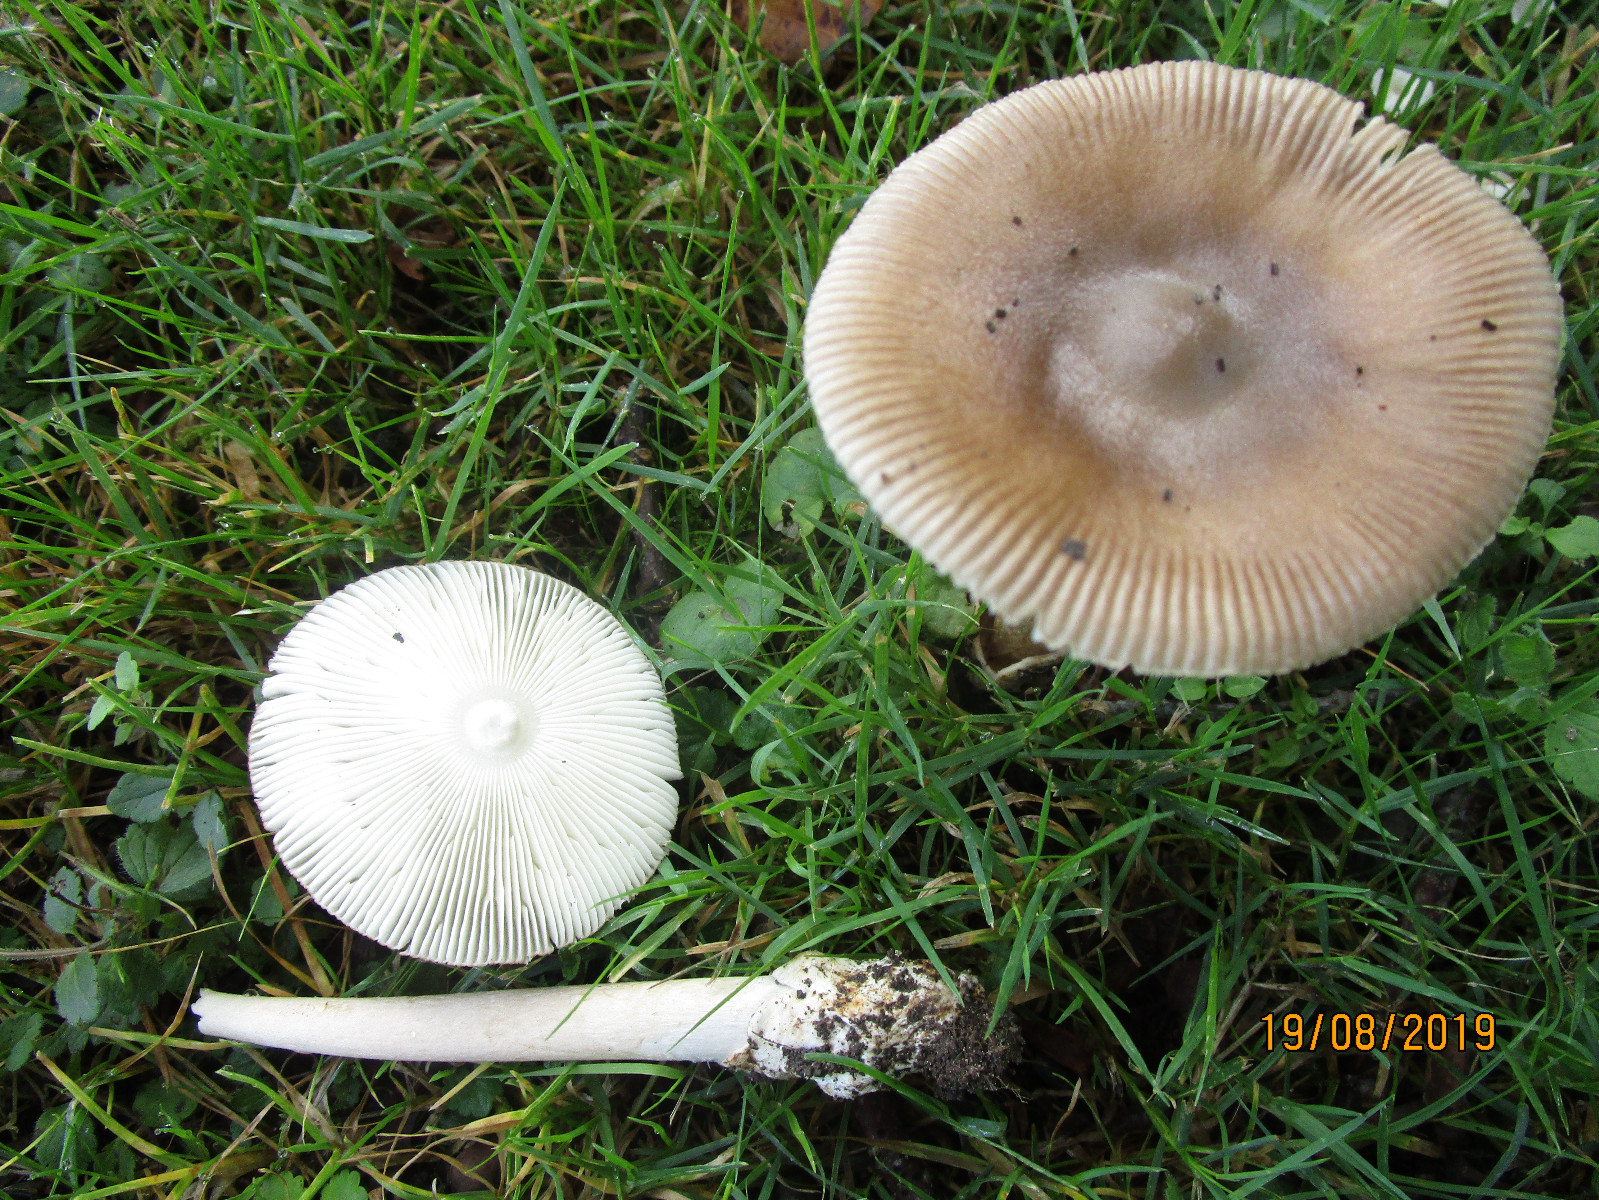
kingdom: Fungi
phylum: Basidiomycota
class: Agaricomycetes
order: Agaricales
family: Amanitaceae
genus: Amanita
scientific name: Amanita fulva
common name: brun kam-fluesvamp
